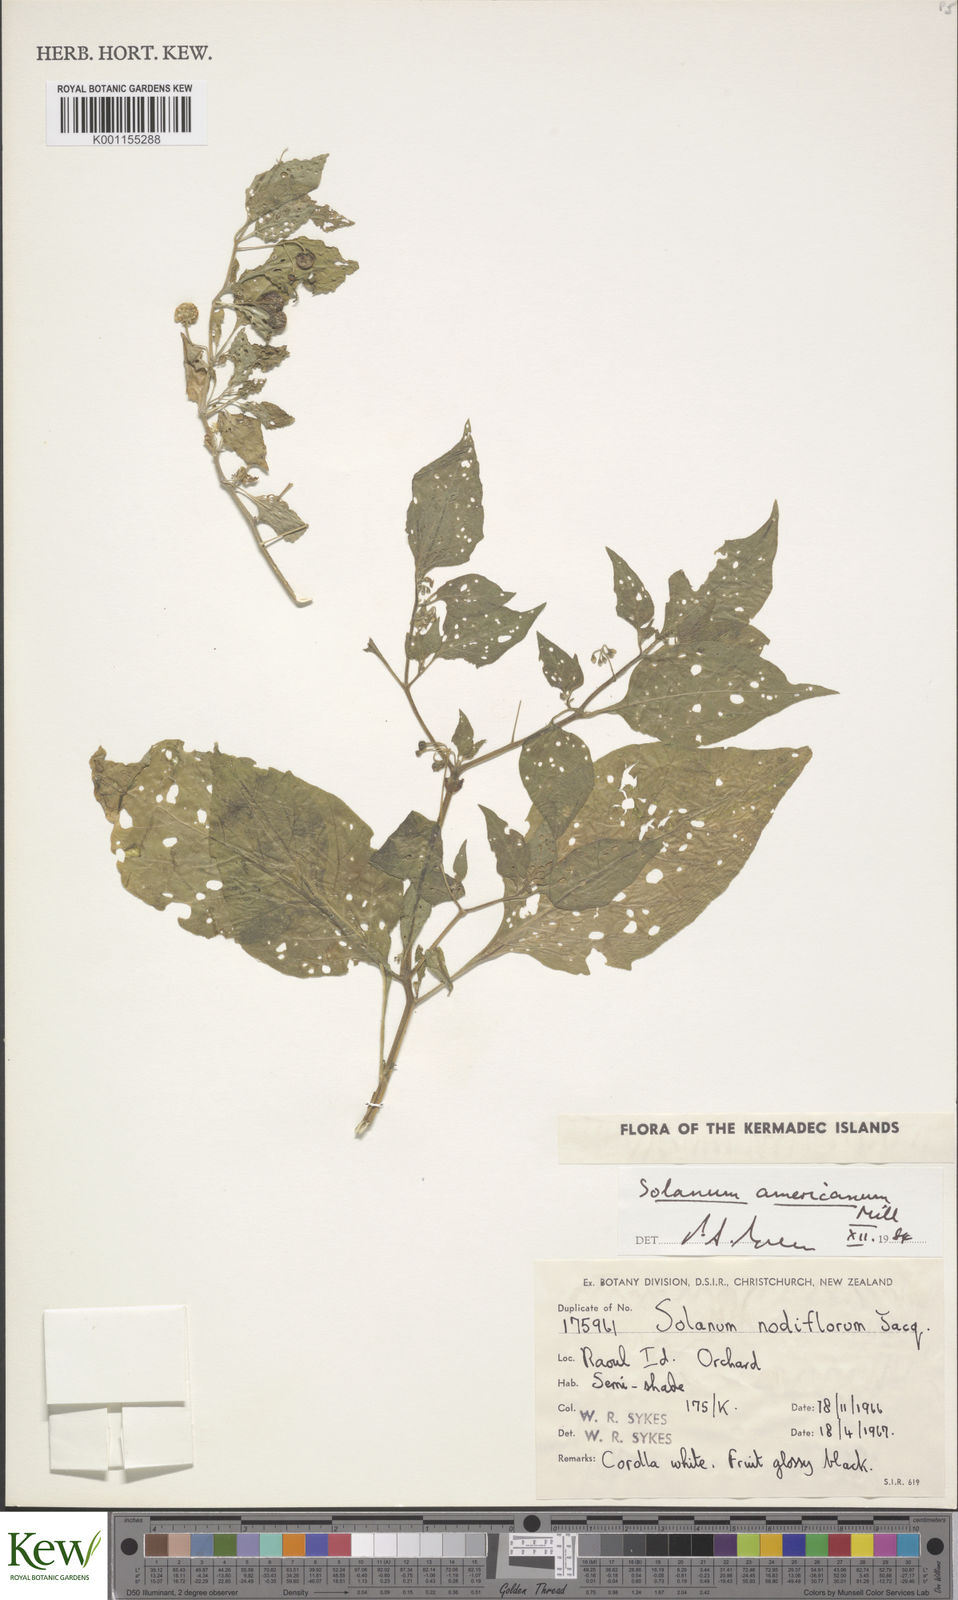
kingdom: Plantae
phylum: Tracheophyta
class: Magnoliopsida
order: Solanales
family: Solanaceae
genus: Solanum
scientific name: Solanum americanum
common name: American black nightshade
